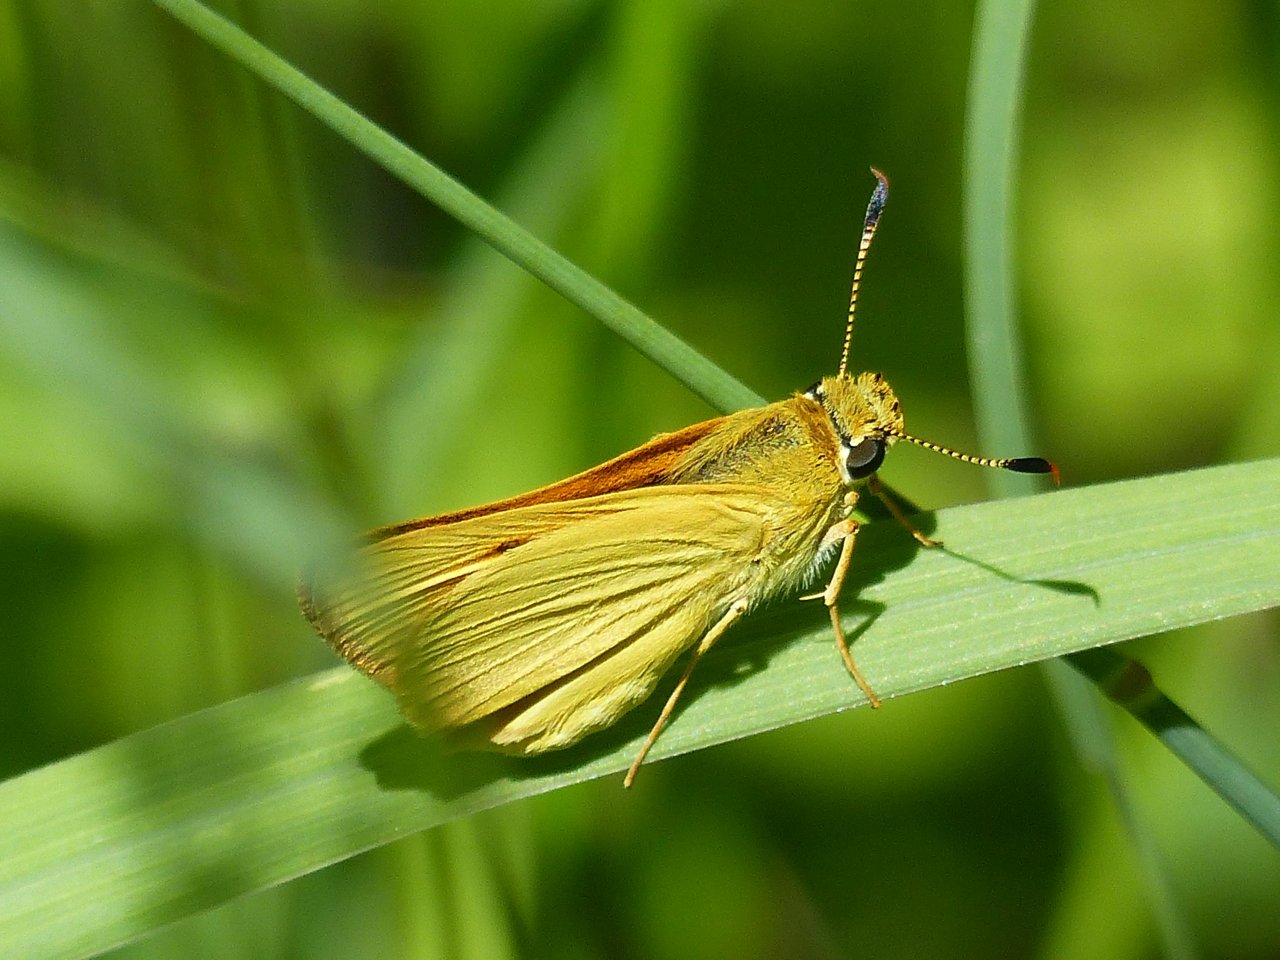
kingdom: Animalia
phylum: Arthropoda
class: Insecta
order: Lepidoptera
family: Hesperiidae
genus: Atrytone
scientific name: Atrytone delaware
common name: Delaware Skipper
